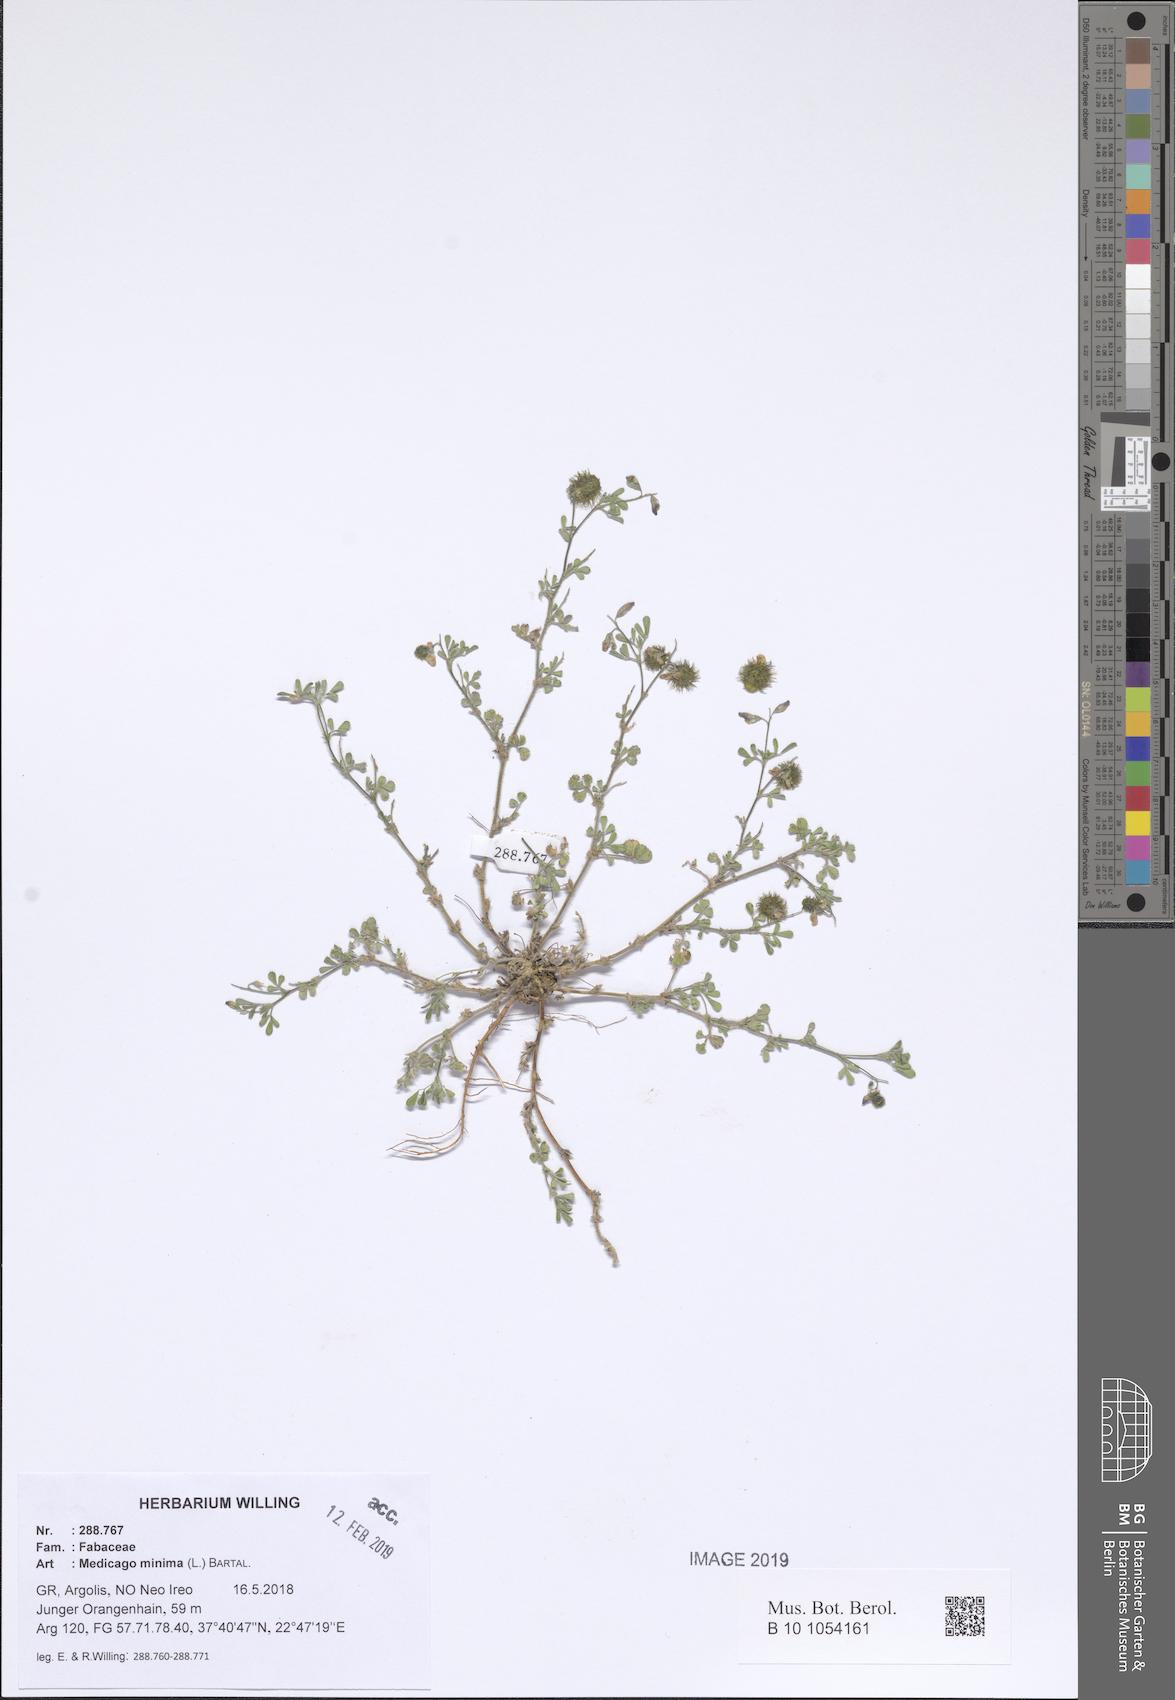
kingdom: Plantae
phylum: Tracheophyta
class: Magnoliopsida
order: Fabales
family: Fabaceae
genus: Medicago
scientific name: Medicago minima
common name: Little bur-clover
